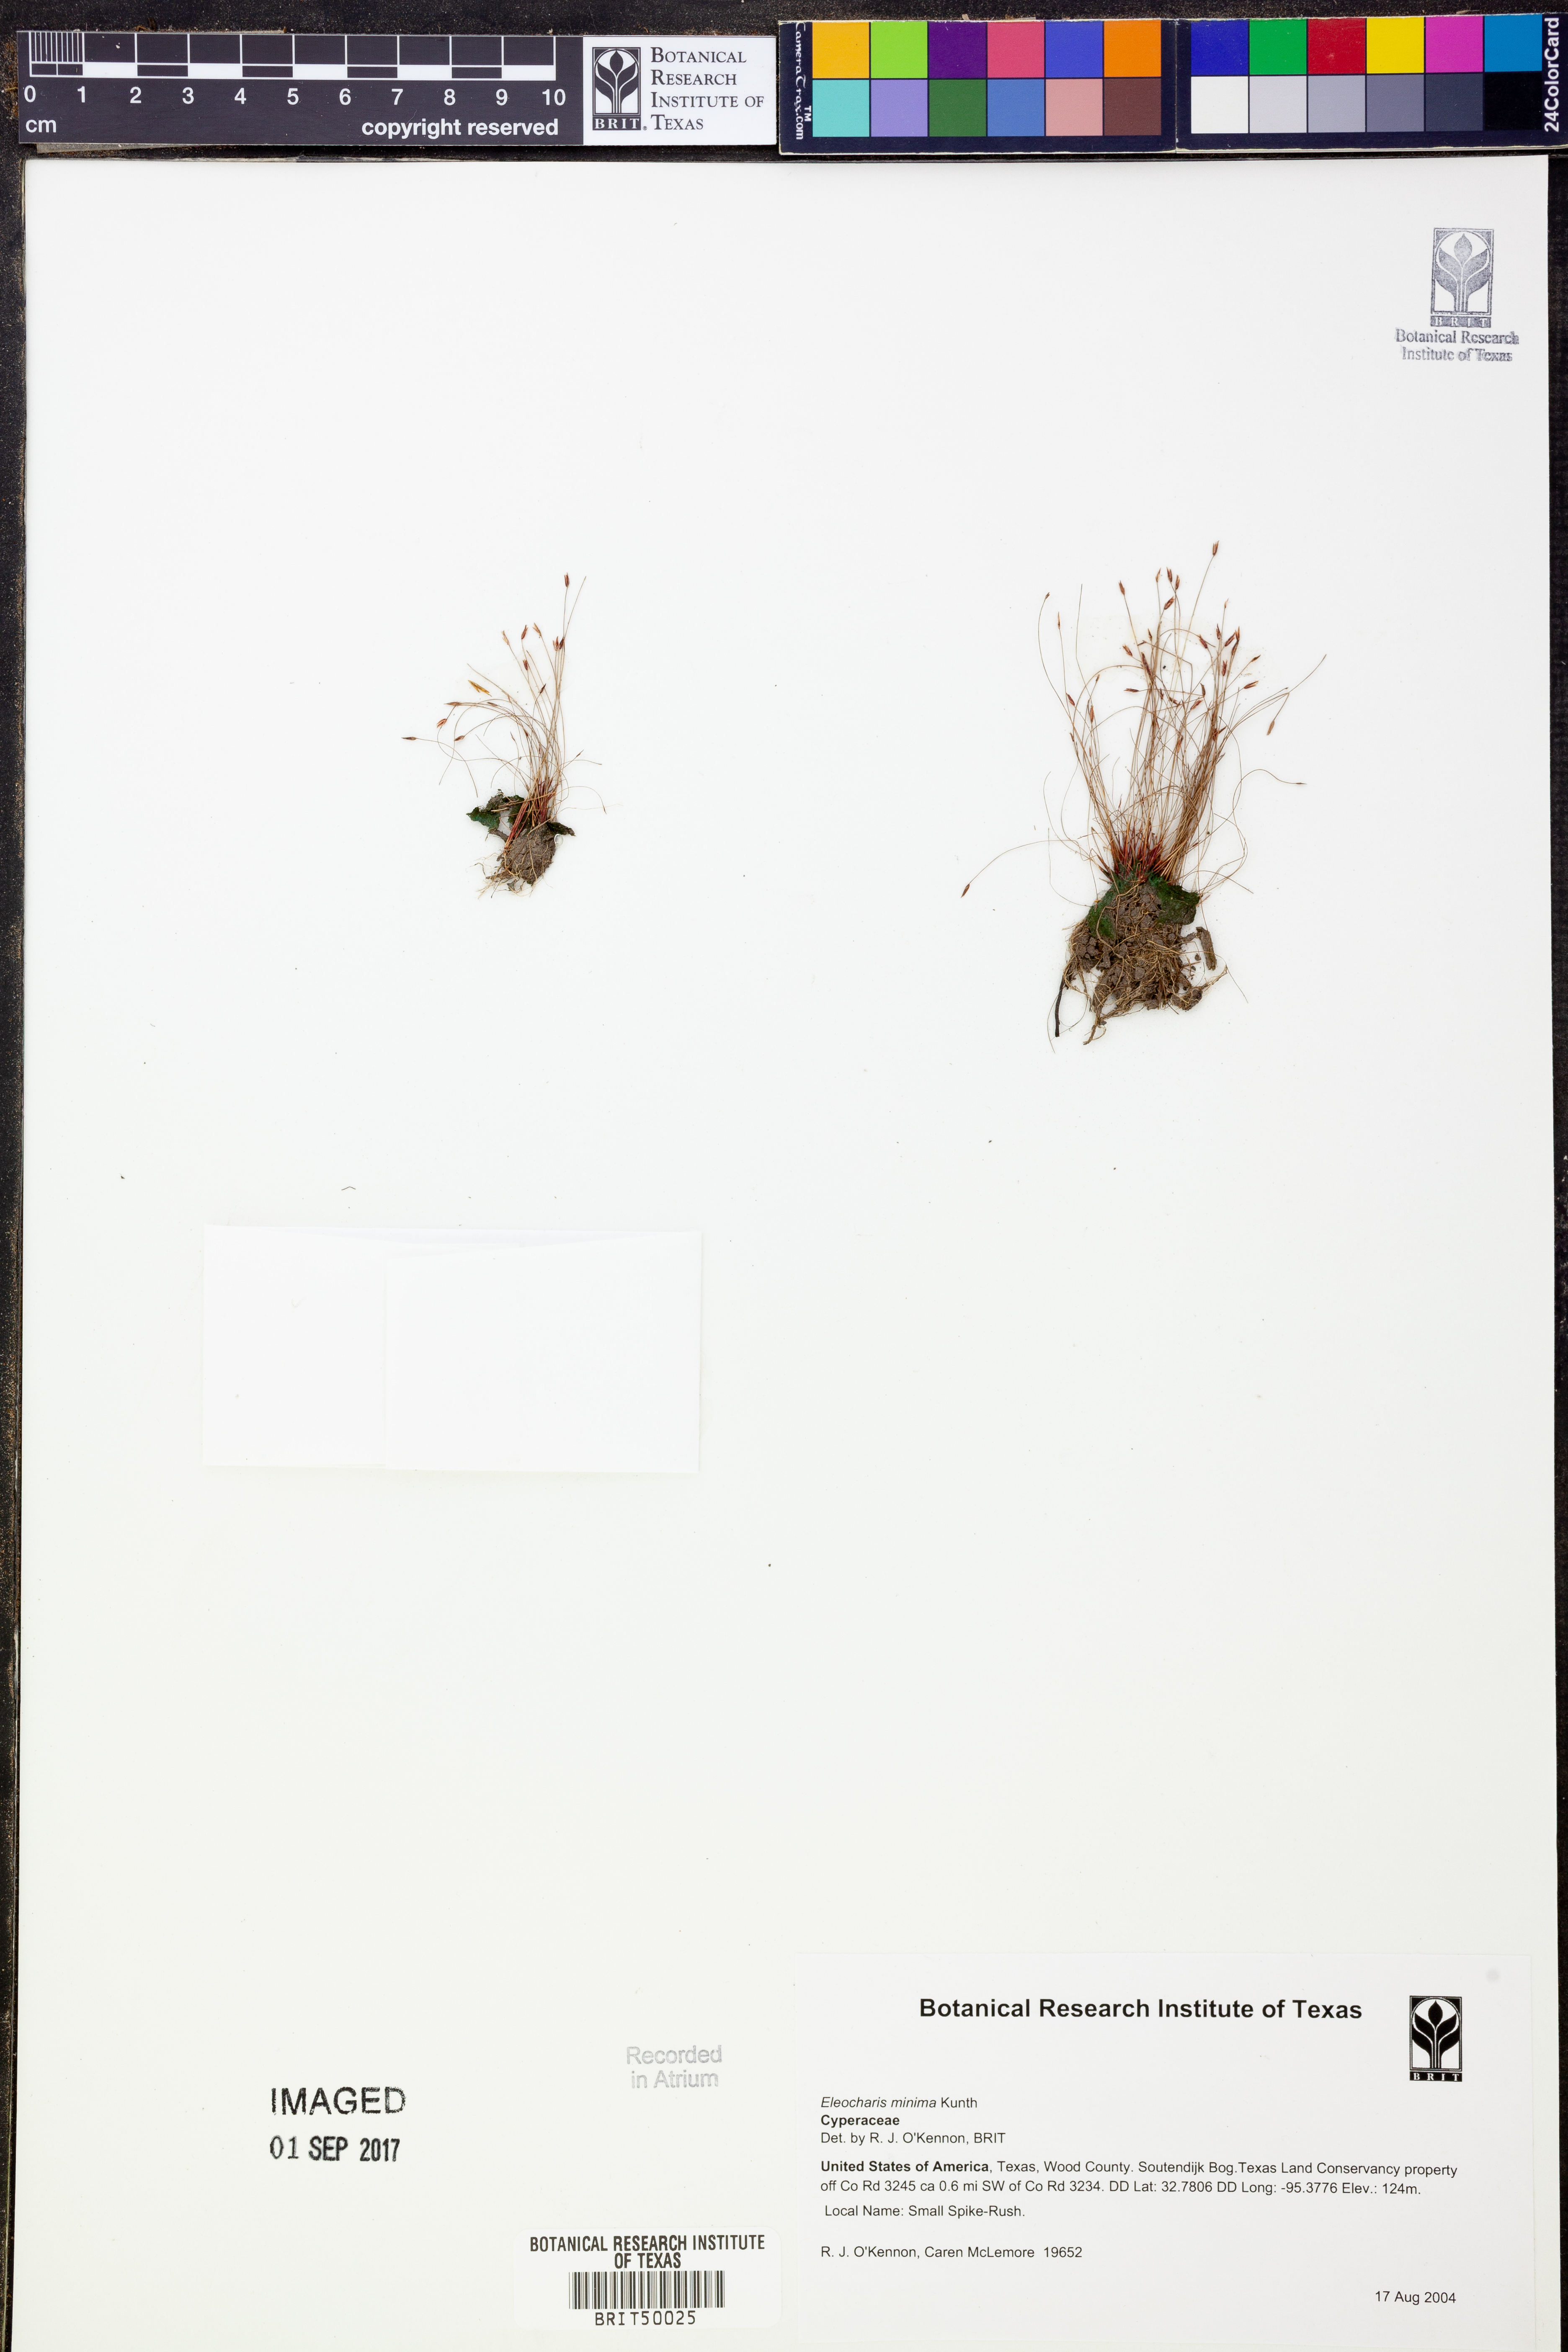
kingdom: Plantae
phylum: Tracheophyta
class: Liliopsida
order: Poales
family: Cyperaceae
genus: Eleocharis
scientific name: Eleocharis minima
